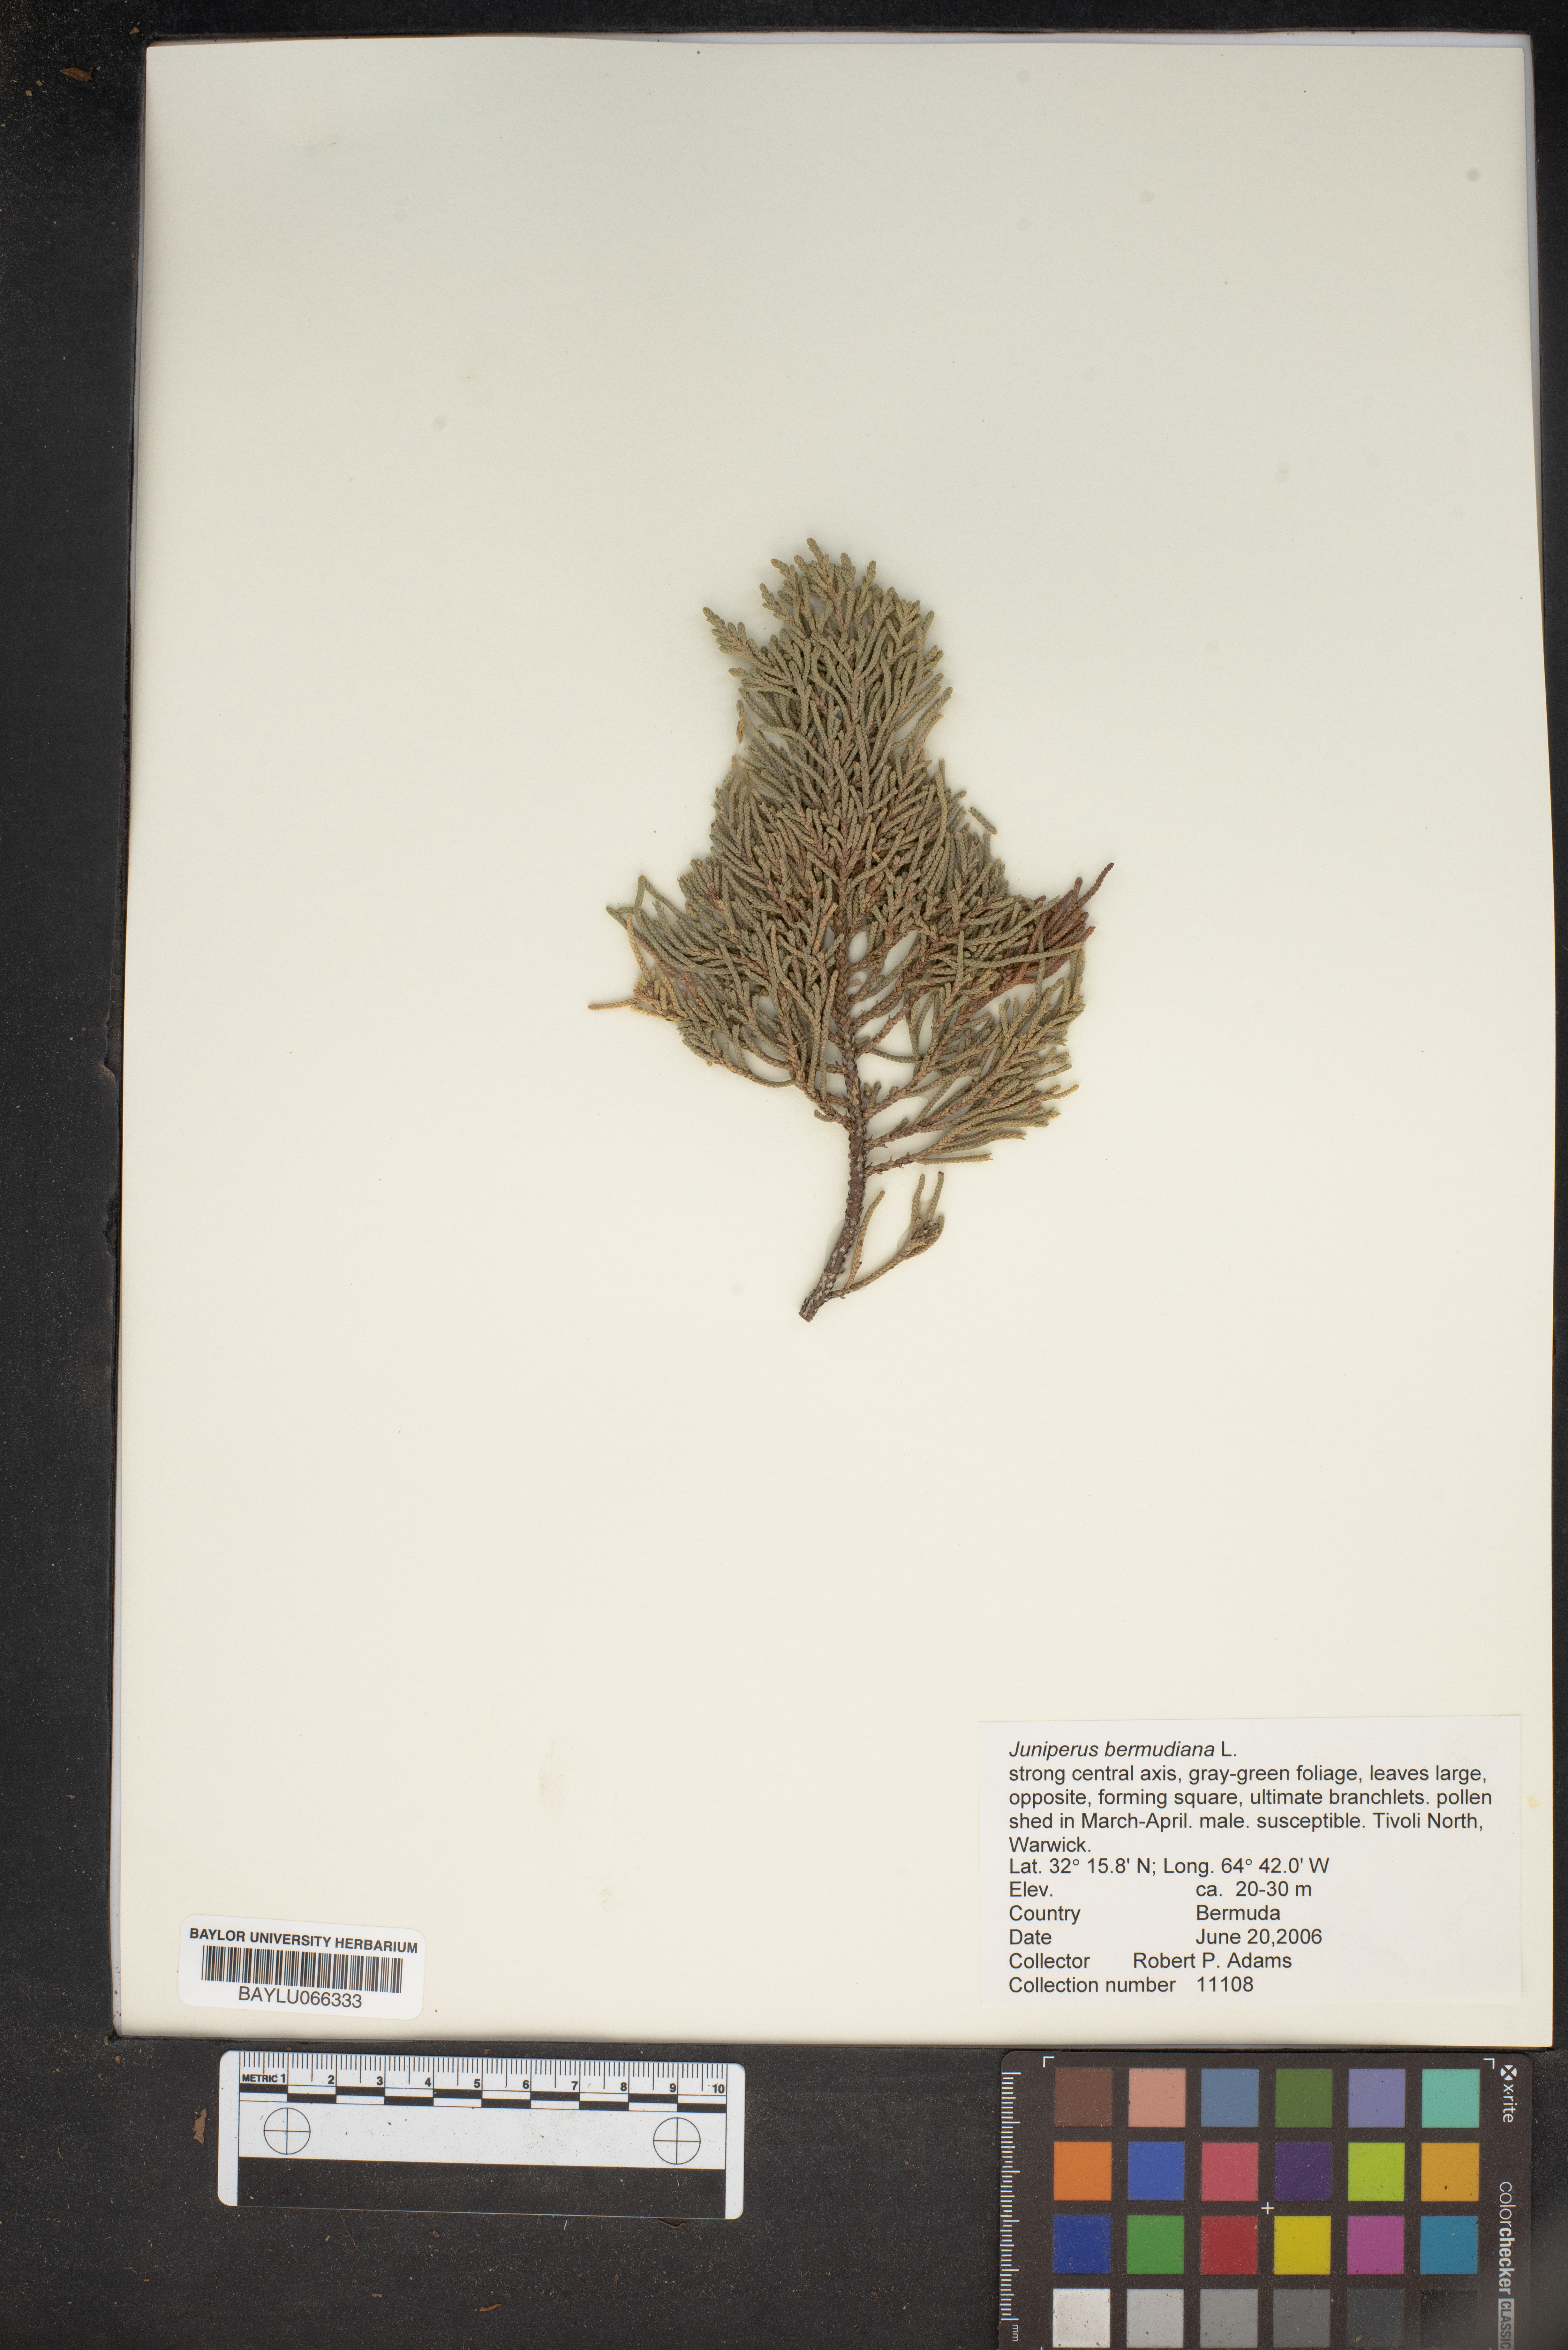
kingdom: Plantae
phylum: Tracheophyta
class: Pinopsida
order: Pinales
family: Cupressaceae
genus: Juniperus
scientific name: Juniperus bermudiana
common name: Bermuda juniper
